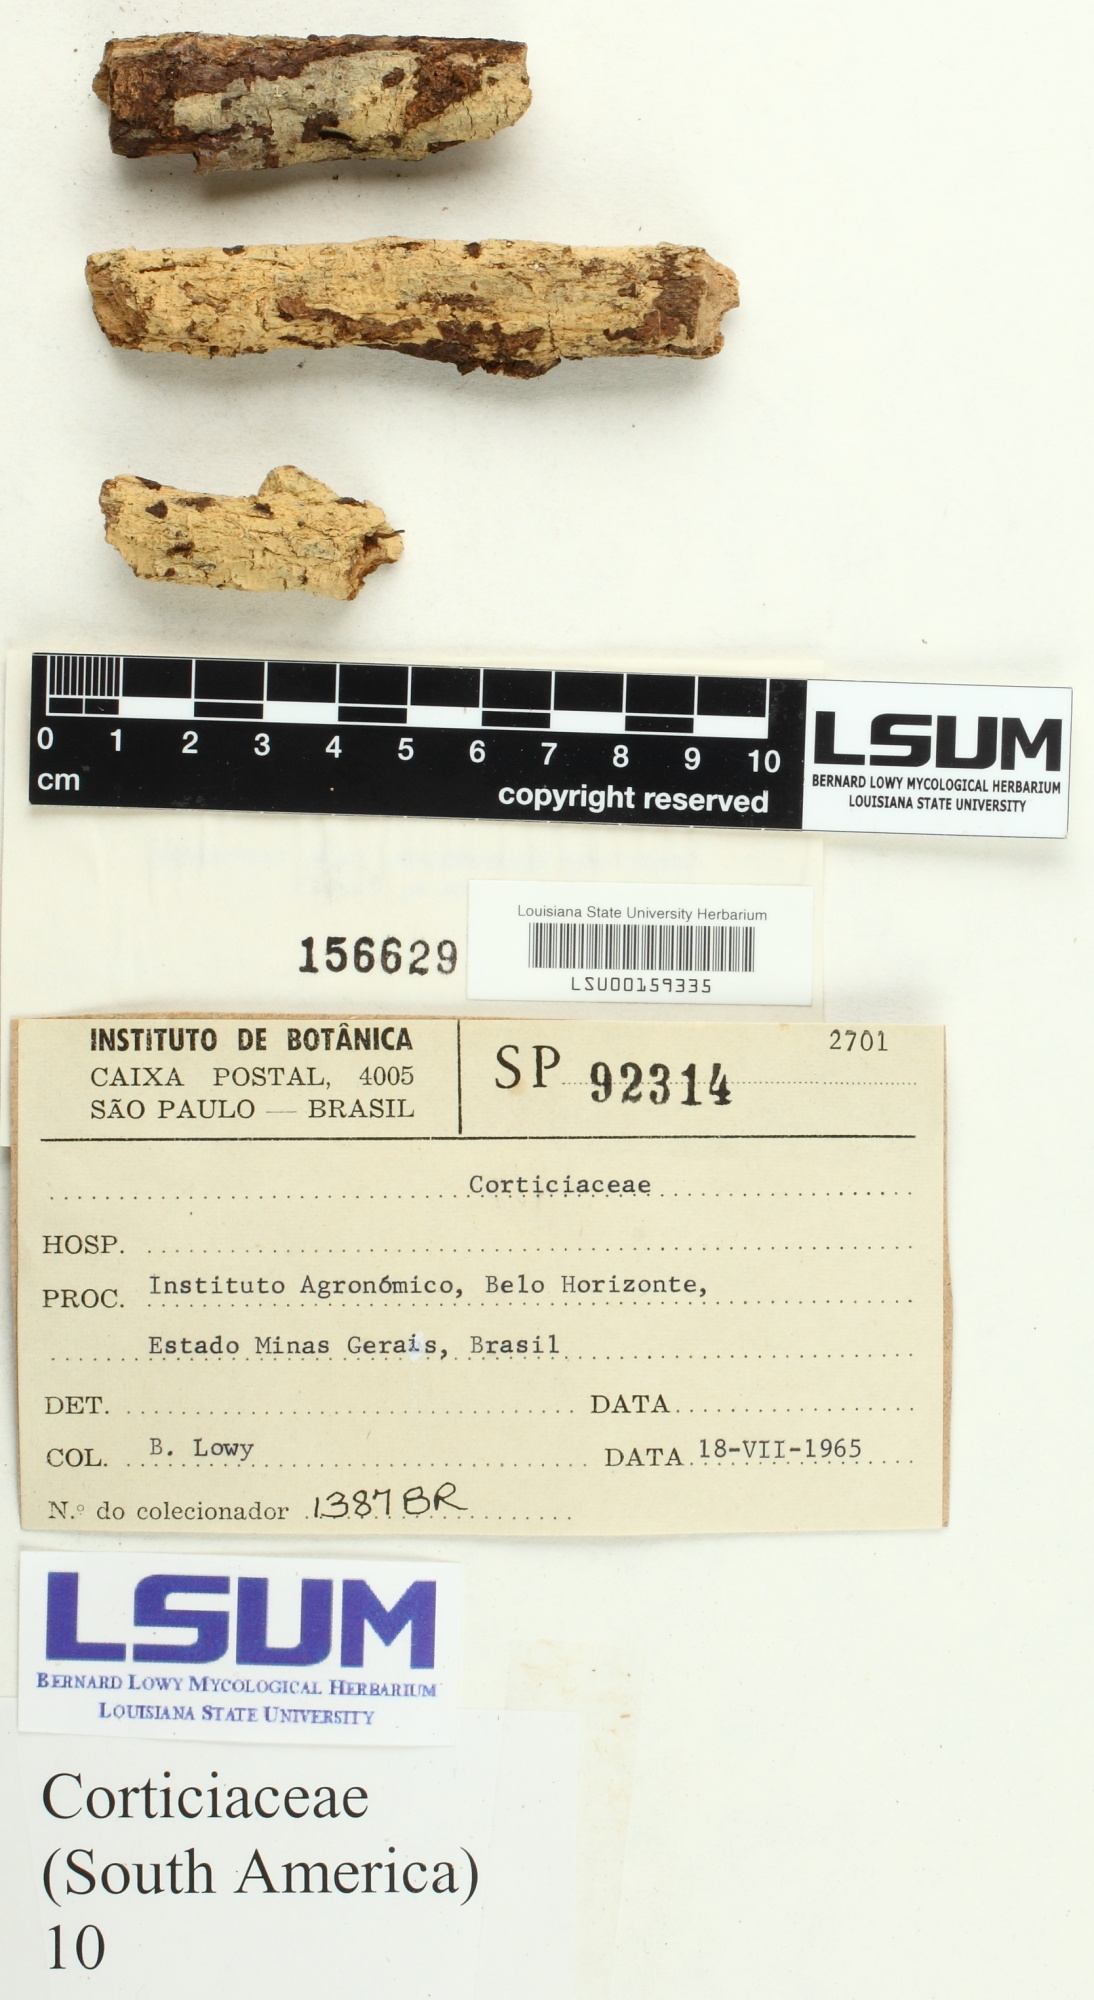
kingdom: Fungi
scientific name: Fungi
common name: Fungi
